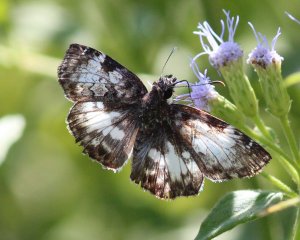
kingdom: Animalia
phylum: Arthropoda
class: Insecta
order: Lepidoptera
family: Hesperiidae
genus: Chiomara
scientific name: Chiomara asychis
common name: White-patched Skipper
